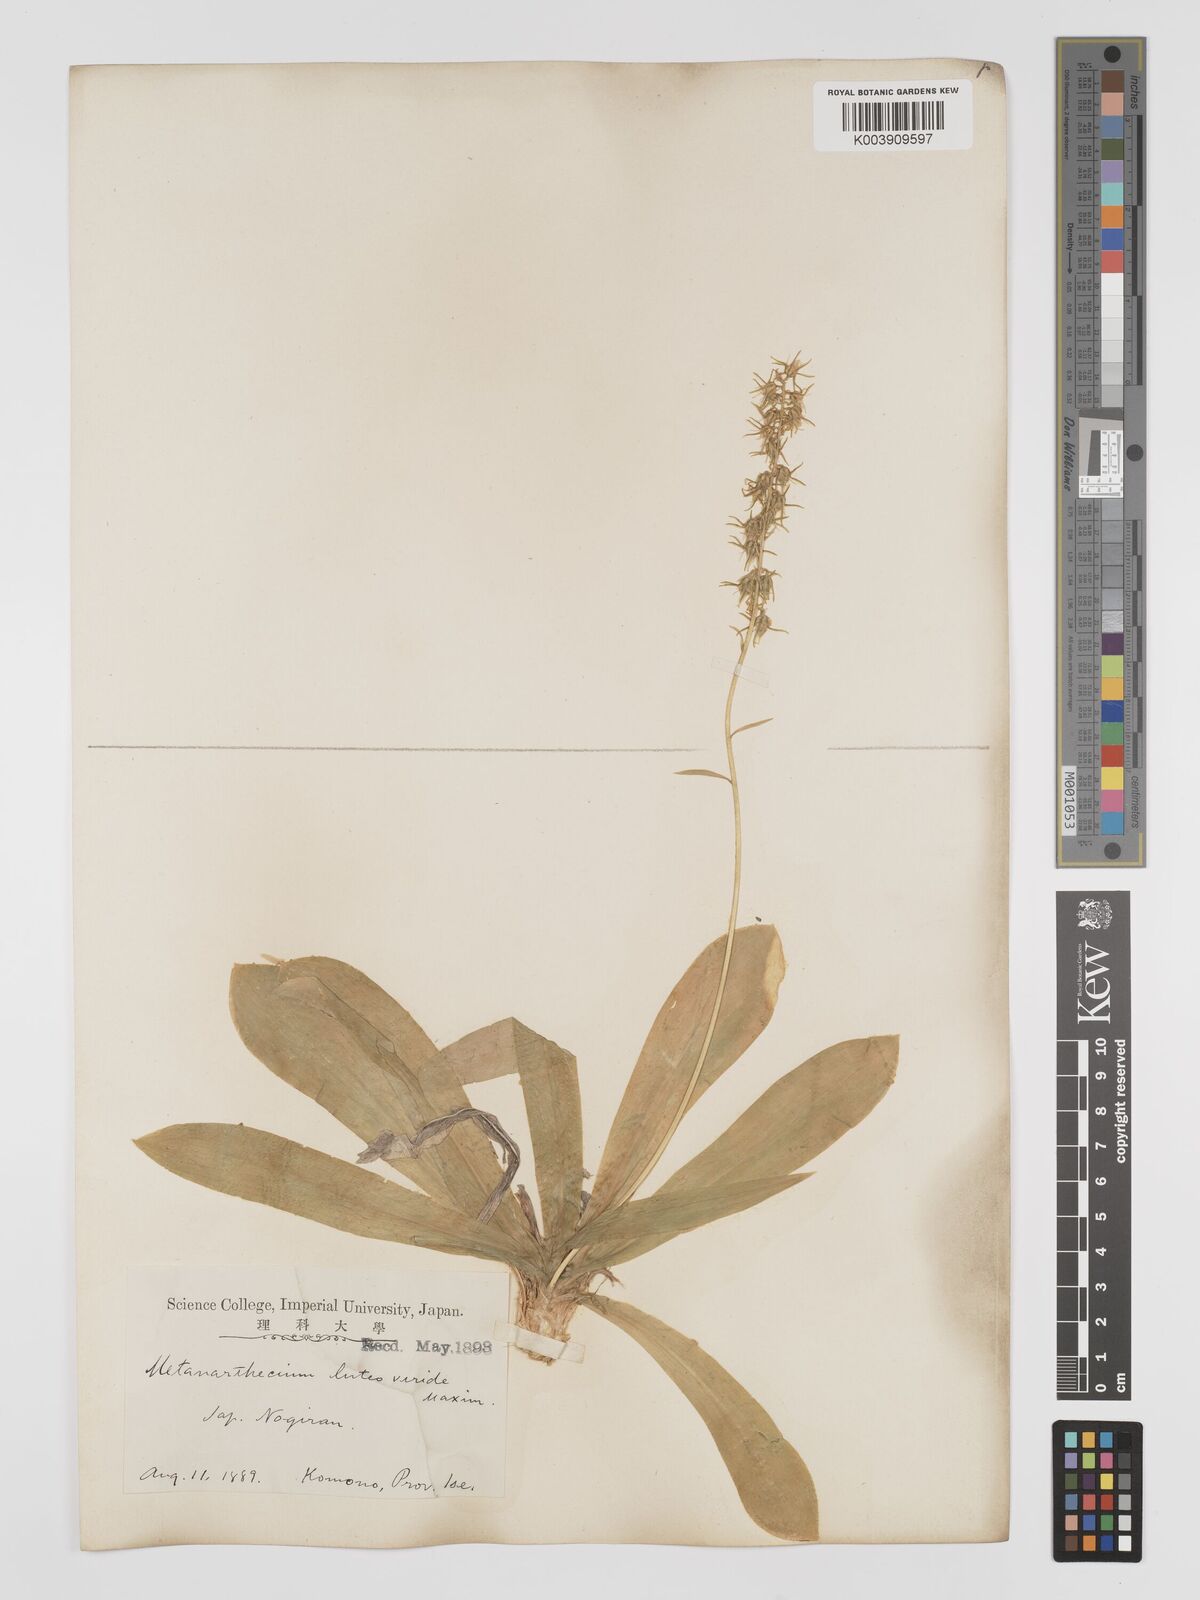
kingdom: Plantae
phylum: Tracheophyta
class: Liliopsida
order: Dioscoreales
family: Nartheciaceae
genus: Metanarthecium
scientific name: Metanarthecium luteoviride
